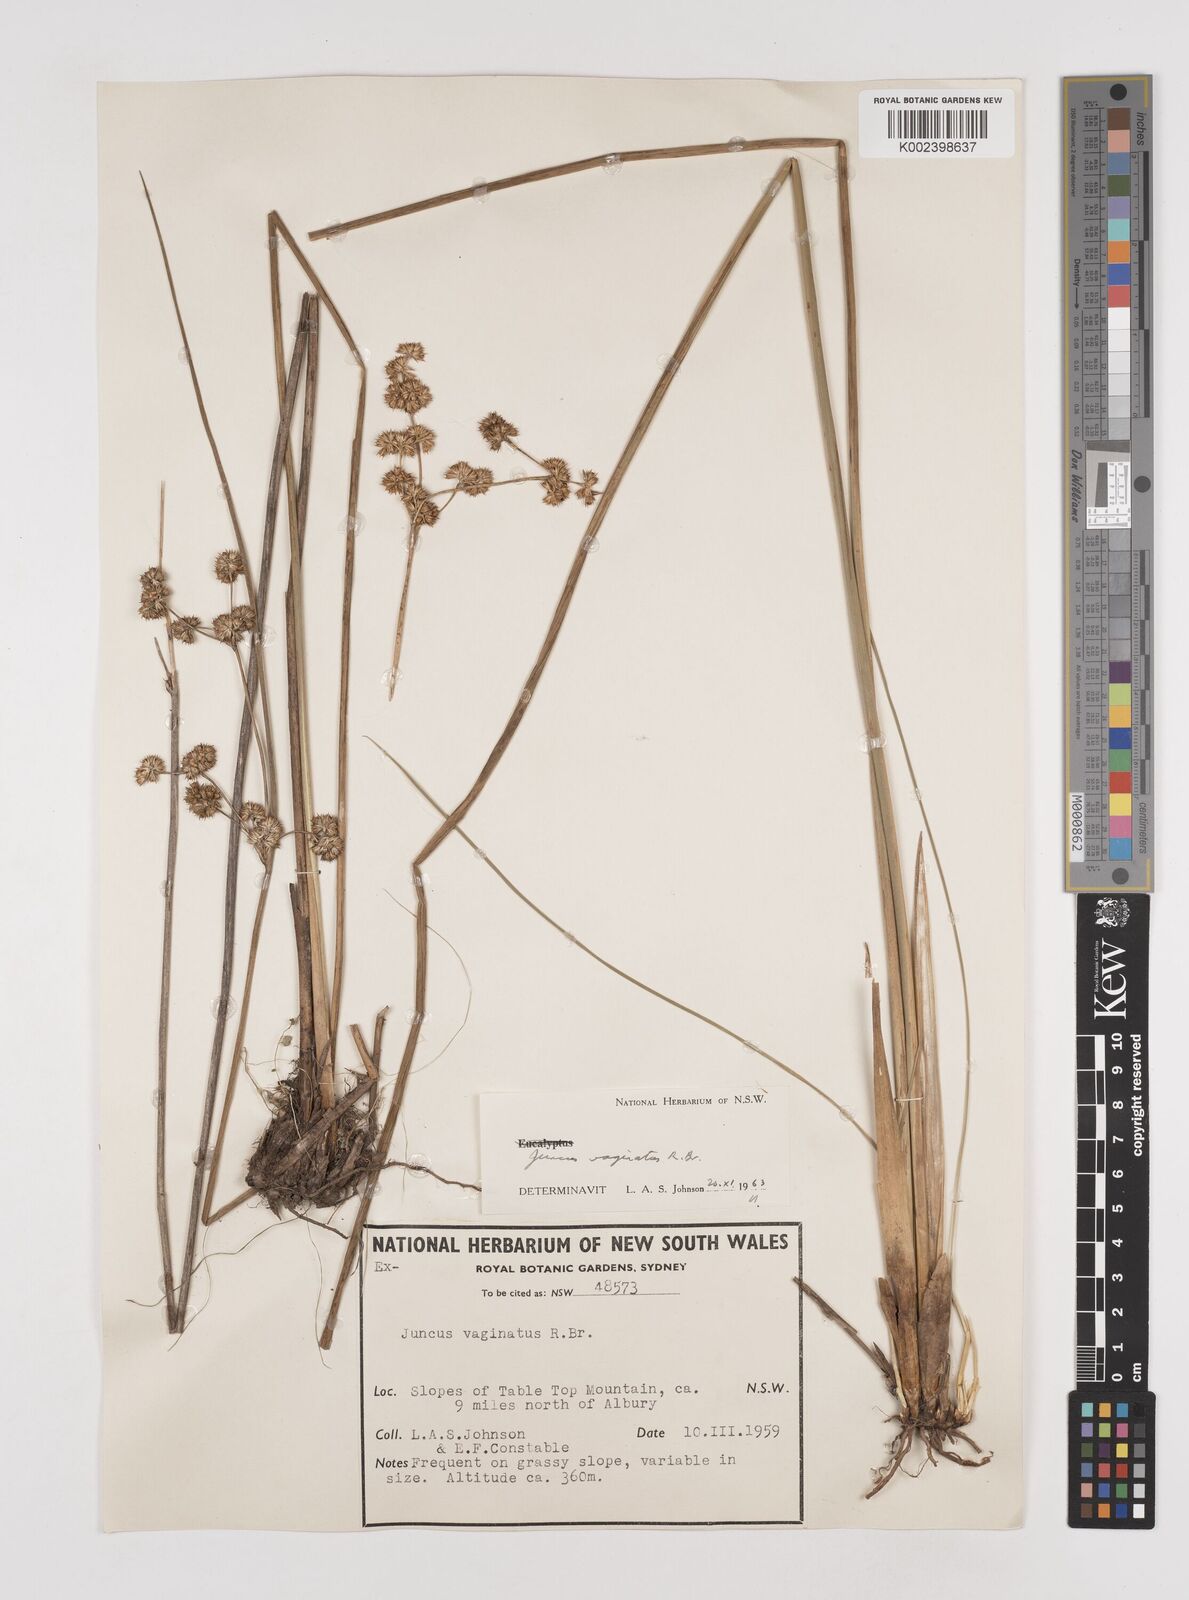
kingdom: Plantae
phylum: Tracheophyta
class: Liliopsida
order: Poales
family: Juncaceae
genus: Juncus
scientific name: Juncus vaginatus
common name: Clustered rush
